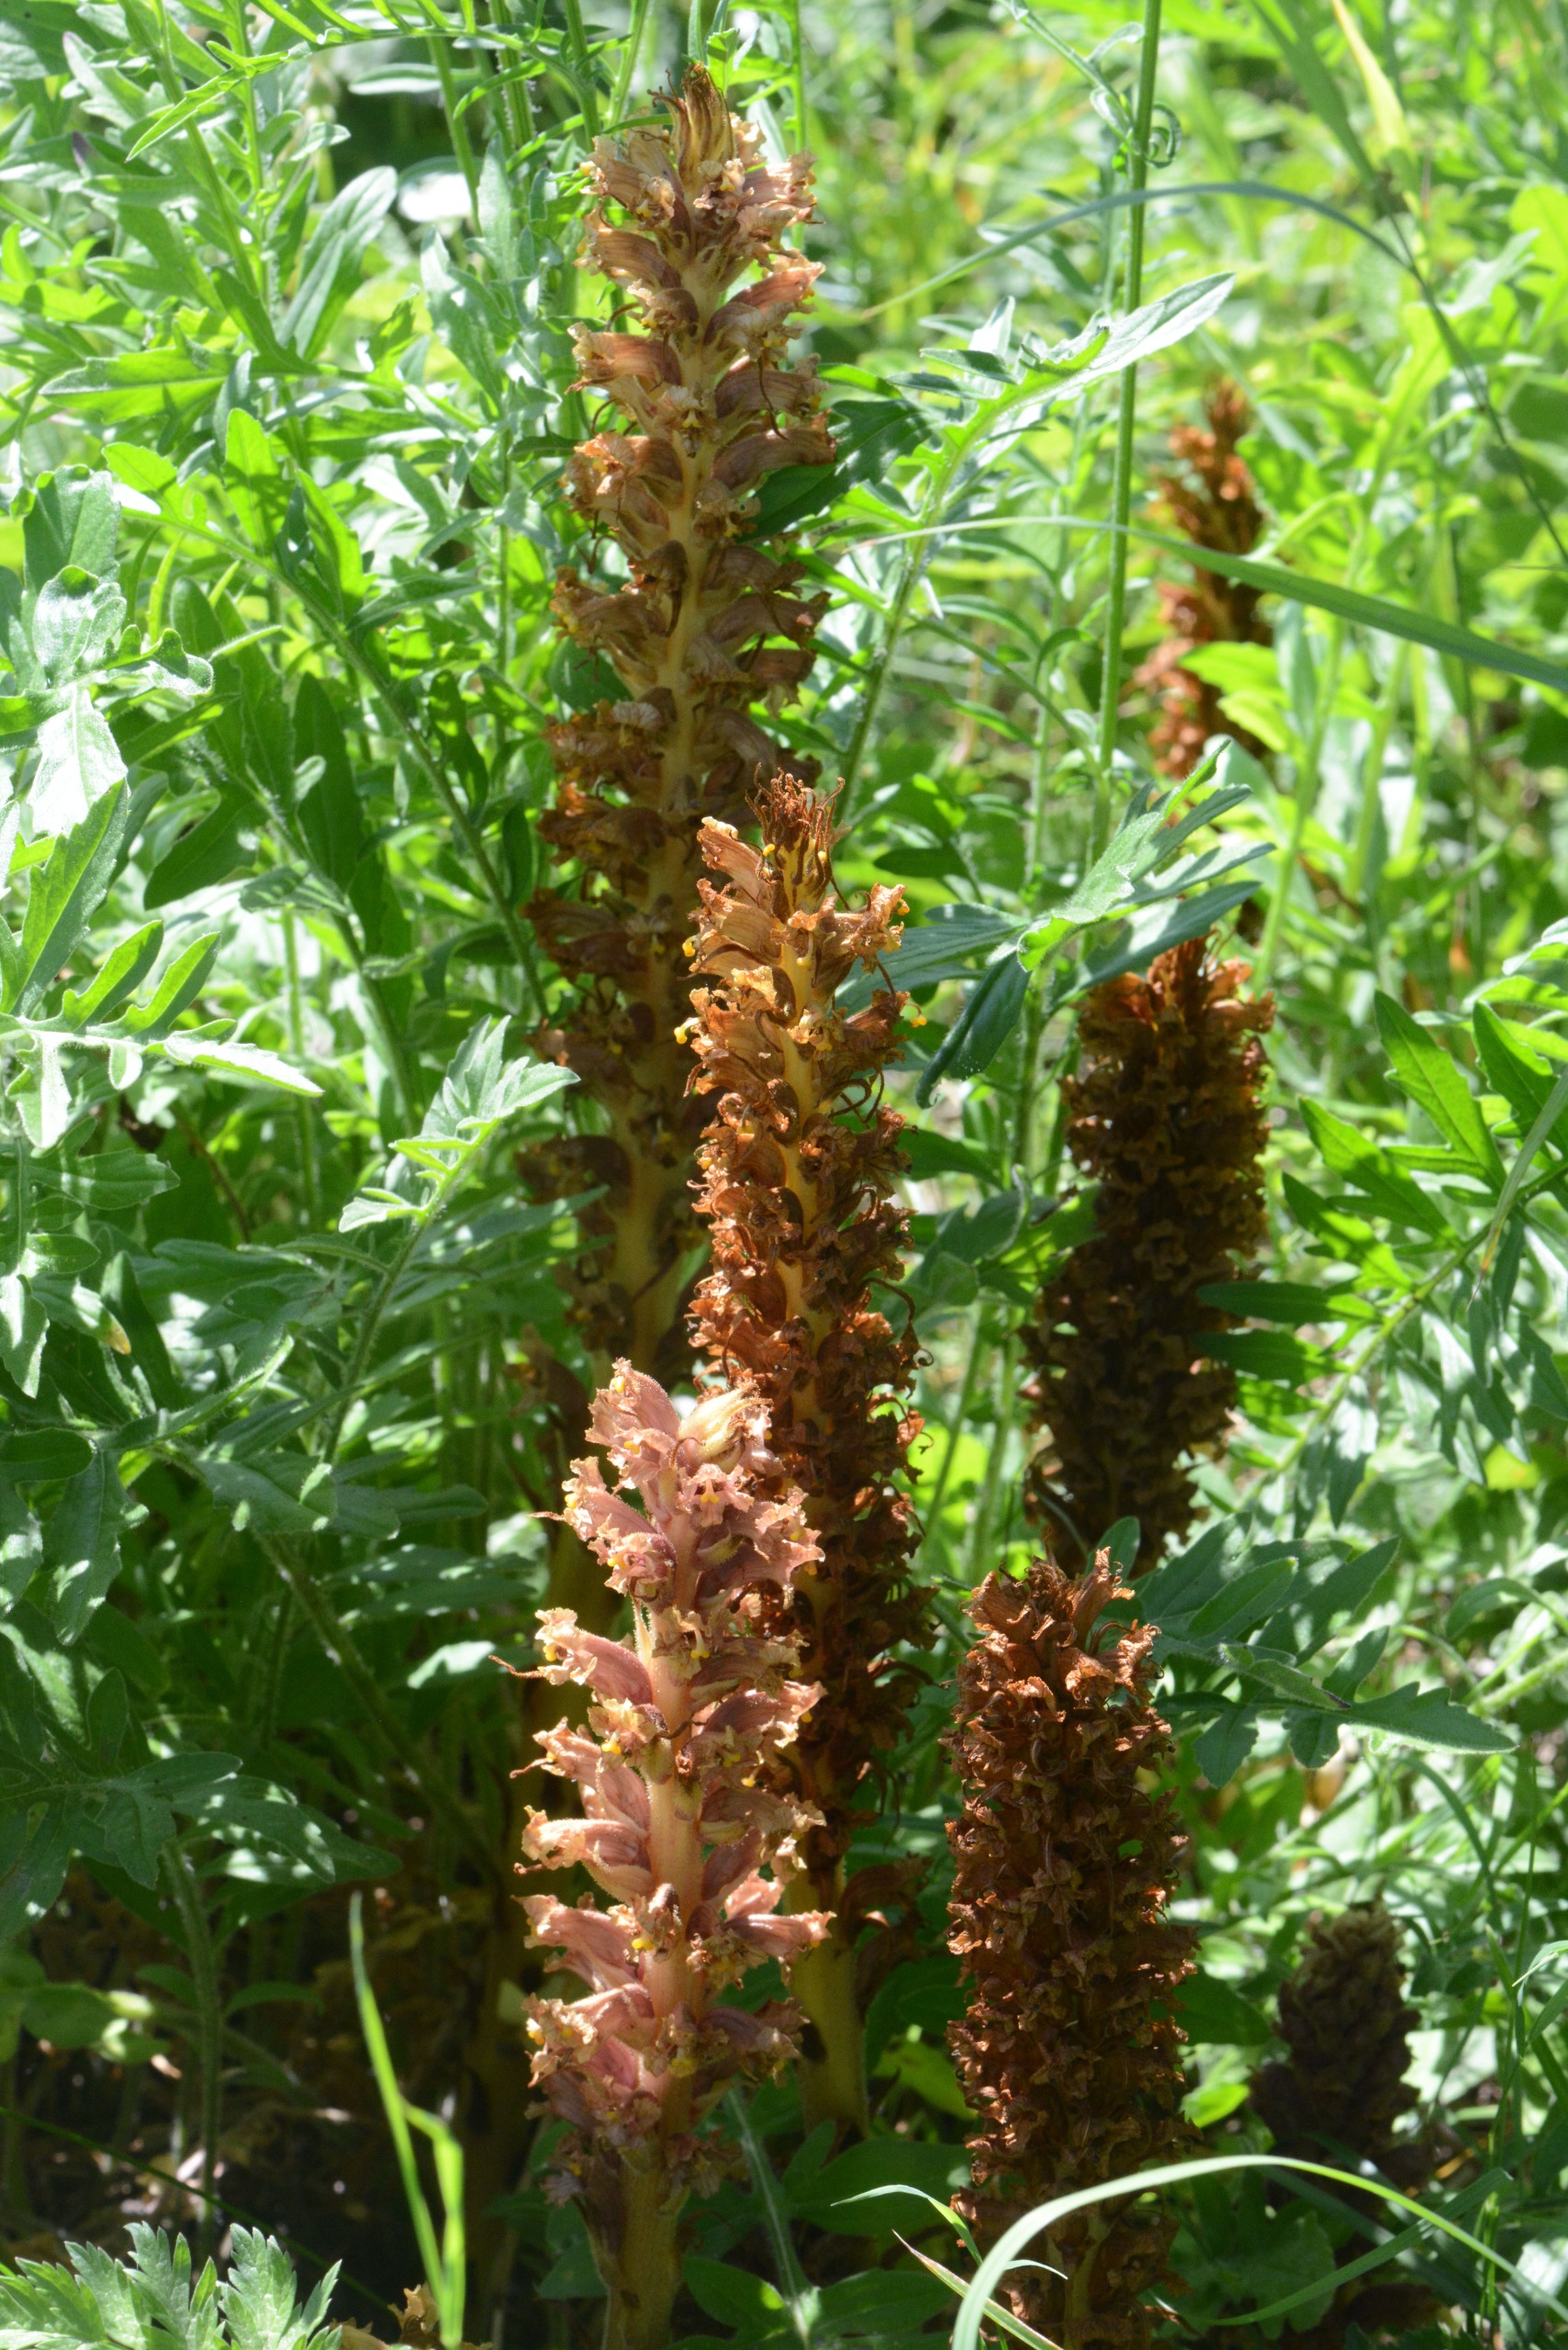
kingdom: Plantae
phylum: Tracheophyta
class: Magnoliopsida
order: Lamiales
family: Orobanchaceae
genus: Orobanche
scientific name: Orobanche elatior
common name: Stor gyvelkvæler
